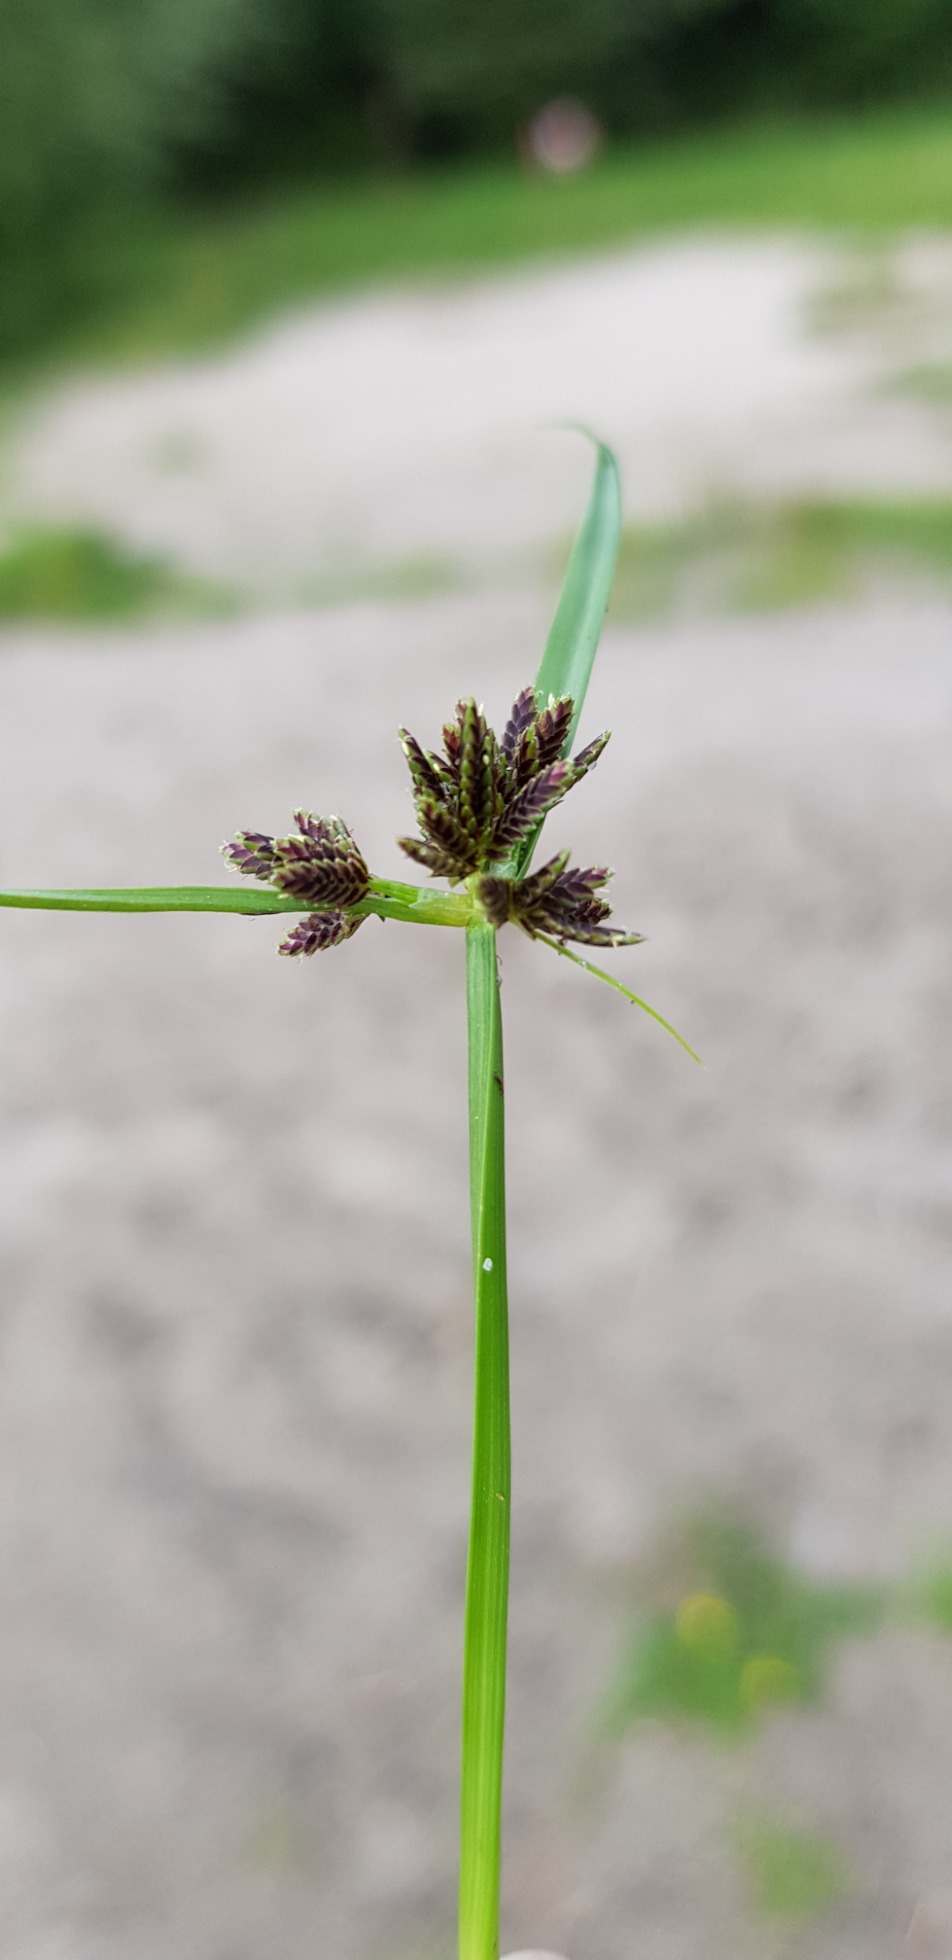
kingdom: Plantae
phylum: Tracheophyta
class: Liliopsida
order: Poales
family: Cyperaceae
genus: Cyperus
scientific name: Cyperus fuscus
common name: Brun fladaks
